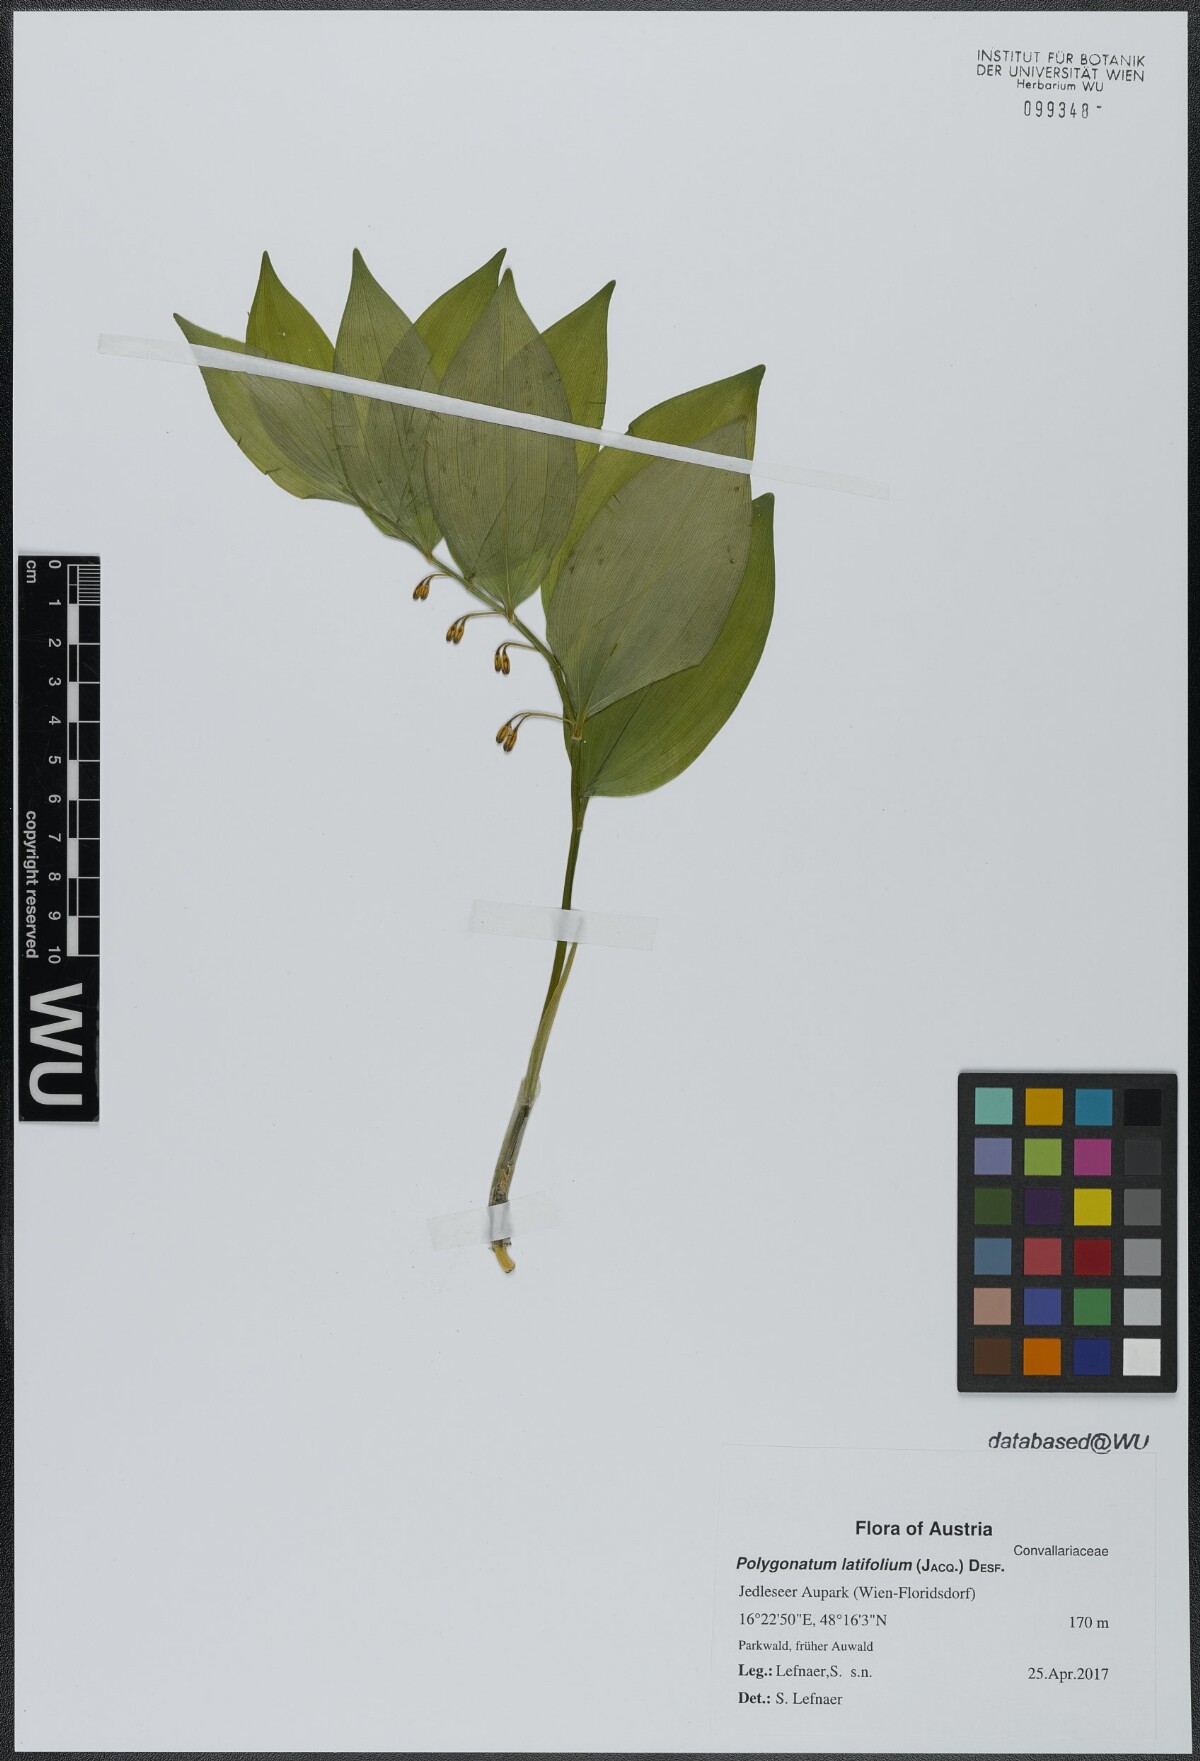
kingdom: Plantae
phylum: Tracheophyta
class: Liliopsida
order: Asparagales
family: Asparagaceae
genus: Polygonatum
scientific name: Polygonatum latifolium
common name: Broadleaf solomon's seal
